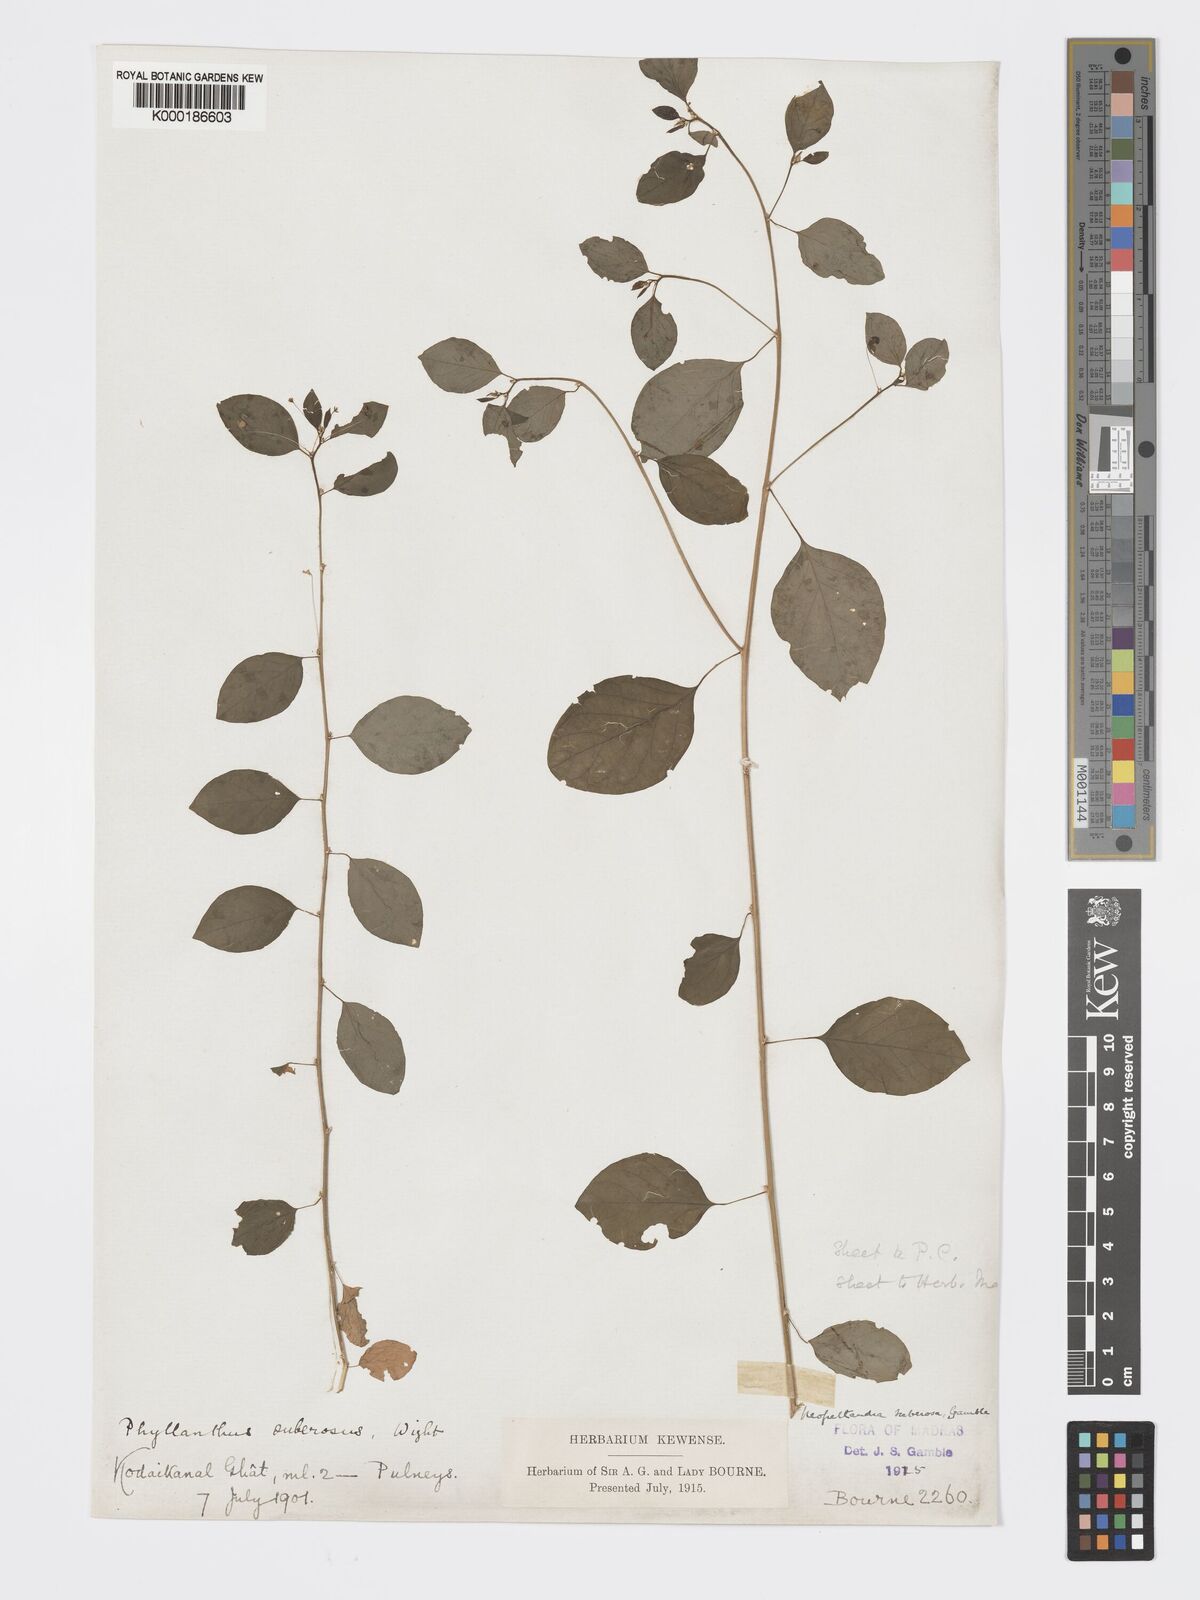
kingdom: Plantae
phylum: Tracheophyta
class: Magnoliopsida
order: Malpighiales
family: Phyllanthaceae
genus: Meineckia
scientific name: Meineckia parvifolia
